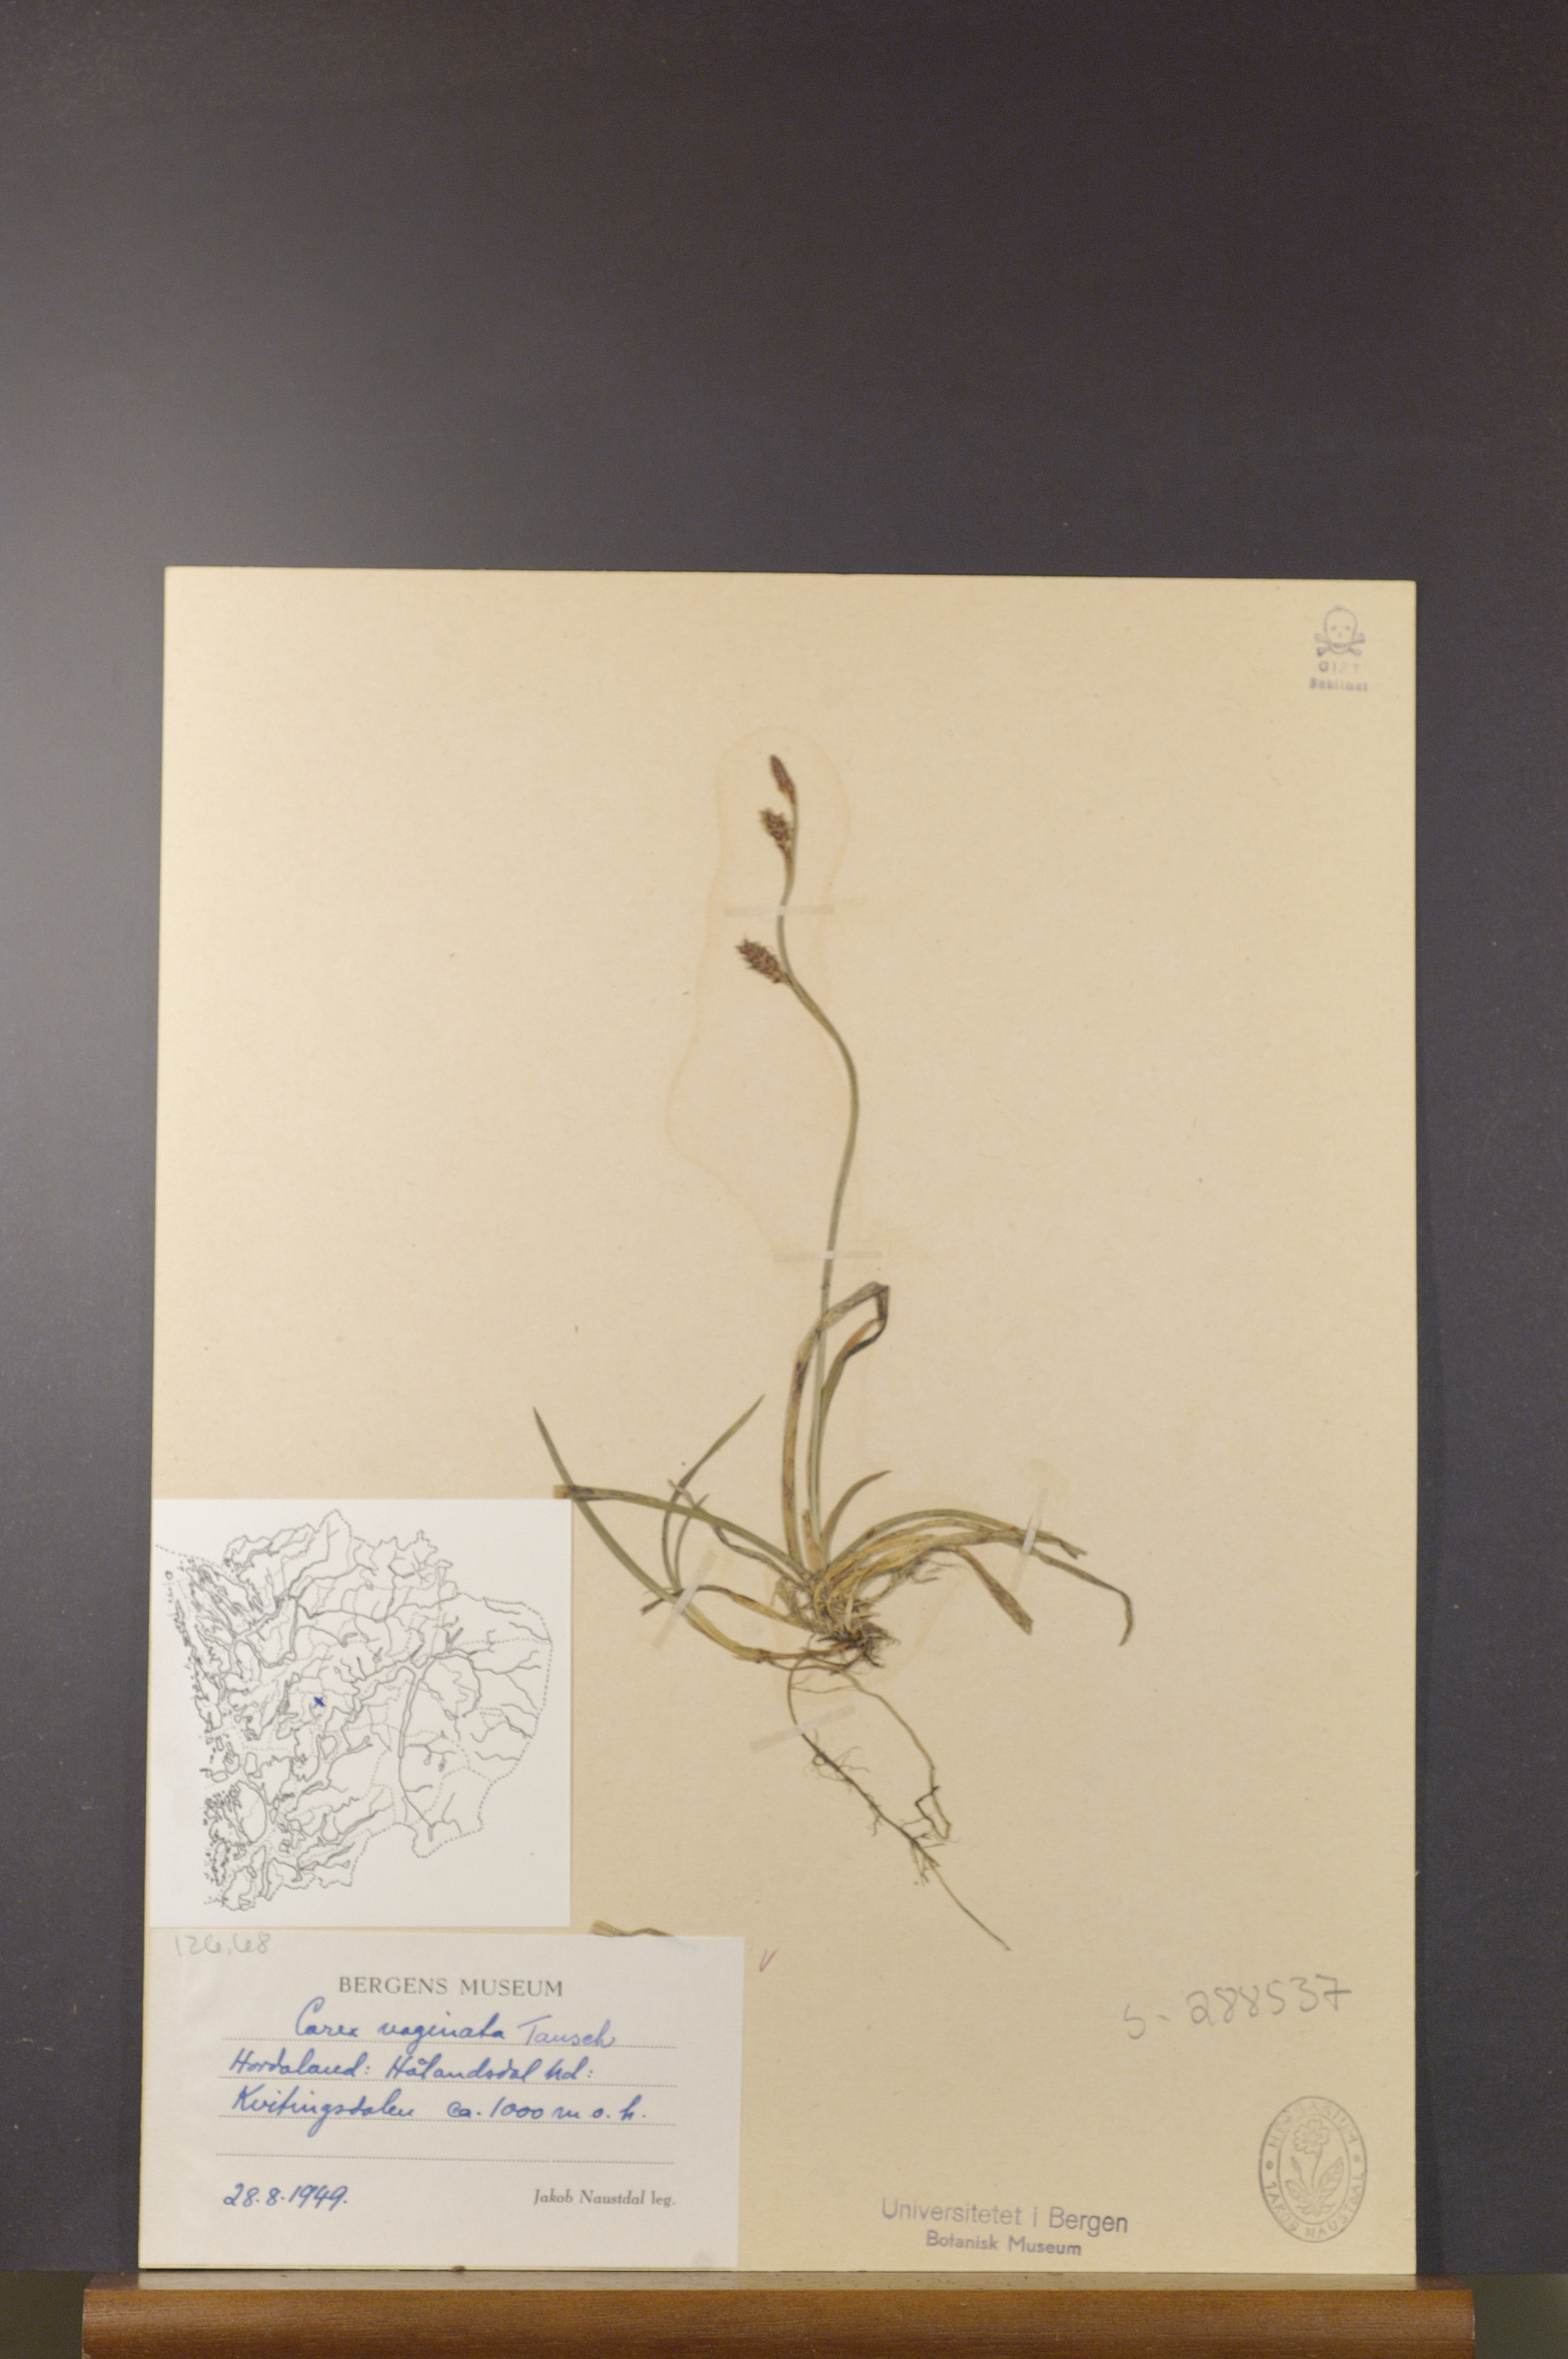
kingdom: Plantae
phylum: Tracheophyta
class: Liliopsida
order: Poales
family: Cyperaceae
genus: Carex
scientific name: Carex vaginata
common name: Sheathed sedge
